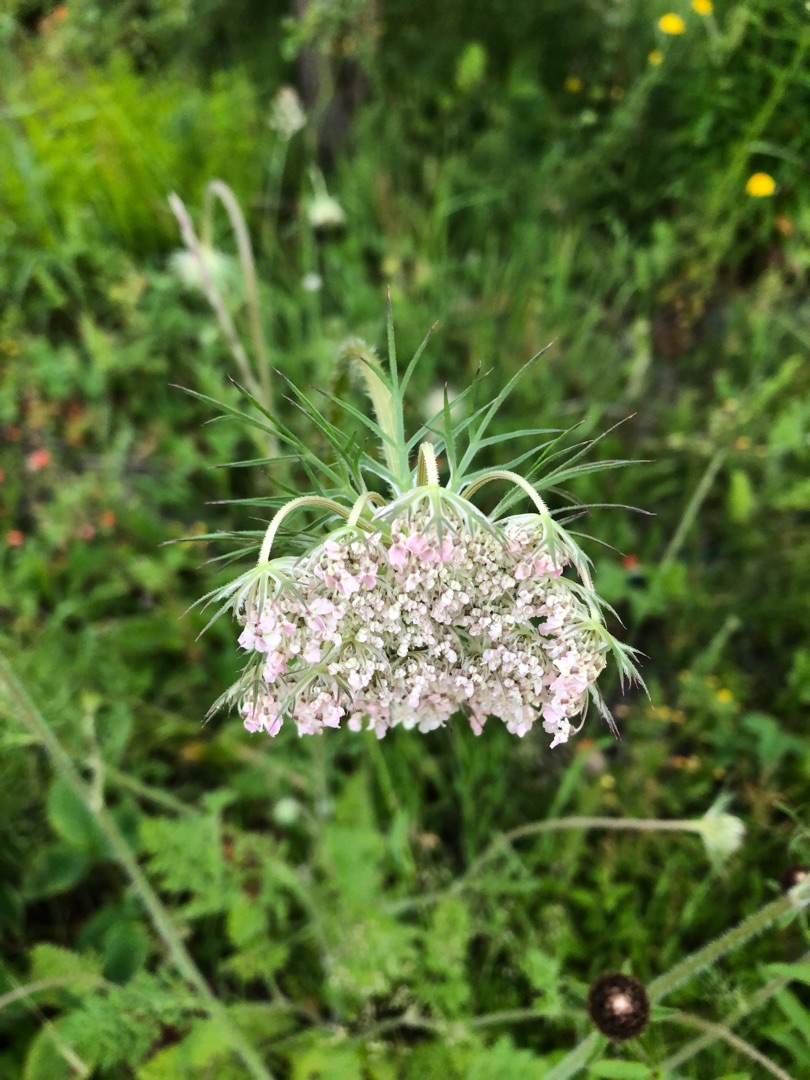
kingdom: Plantae
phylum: Tracheophyta
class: Magnoliopsida
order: Apiales
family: Apiaceae
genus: Daucus
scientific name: Daucus carota
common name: Gulerod
